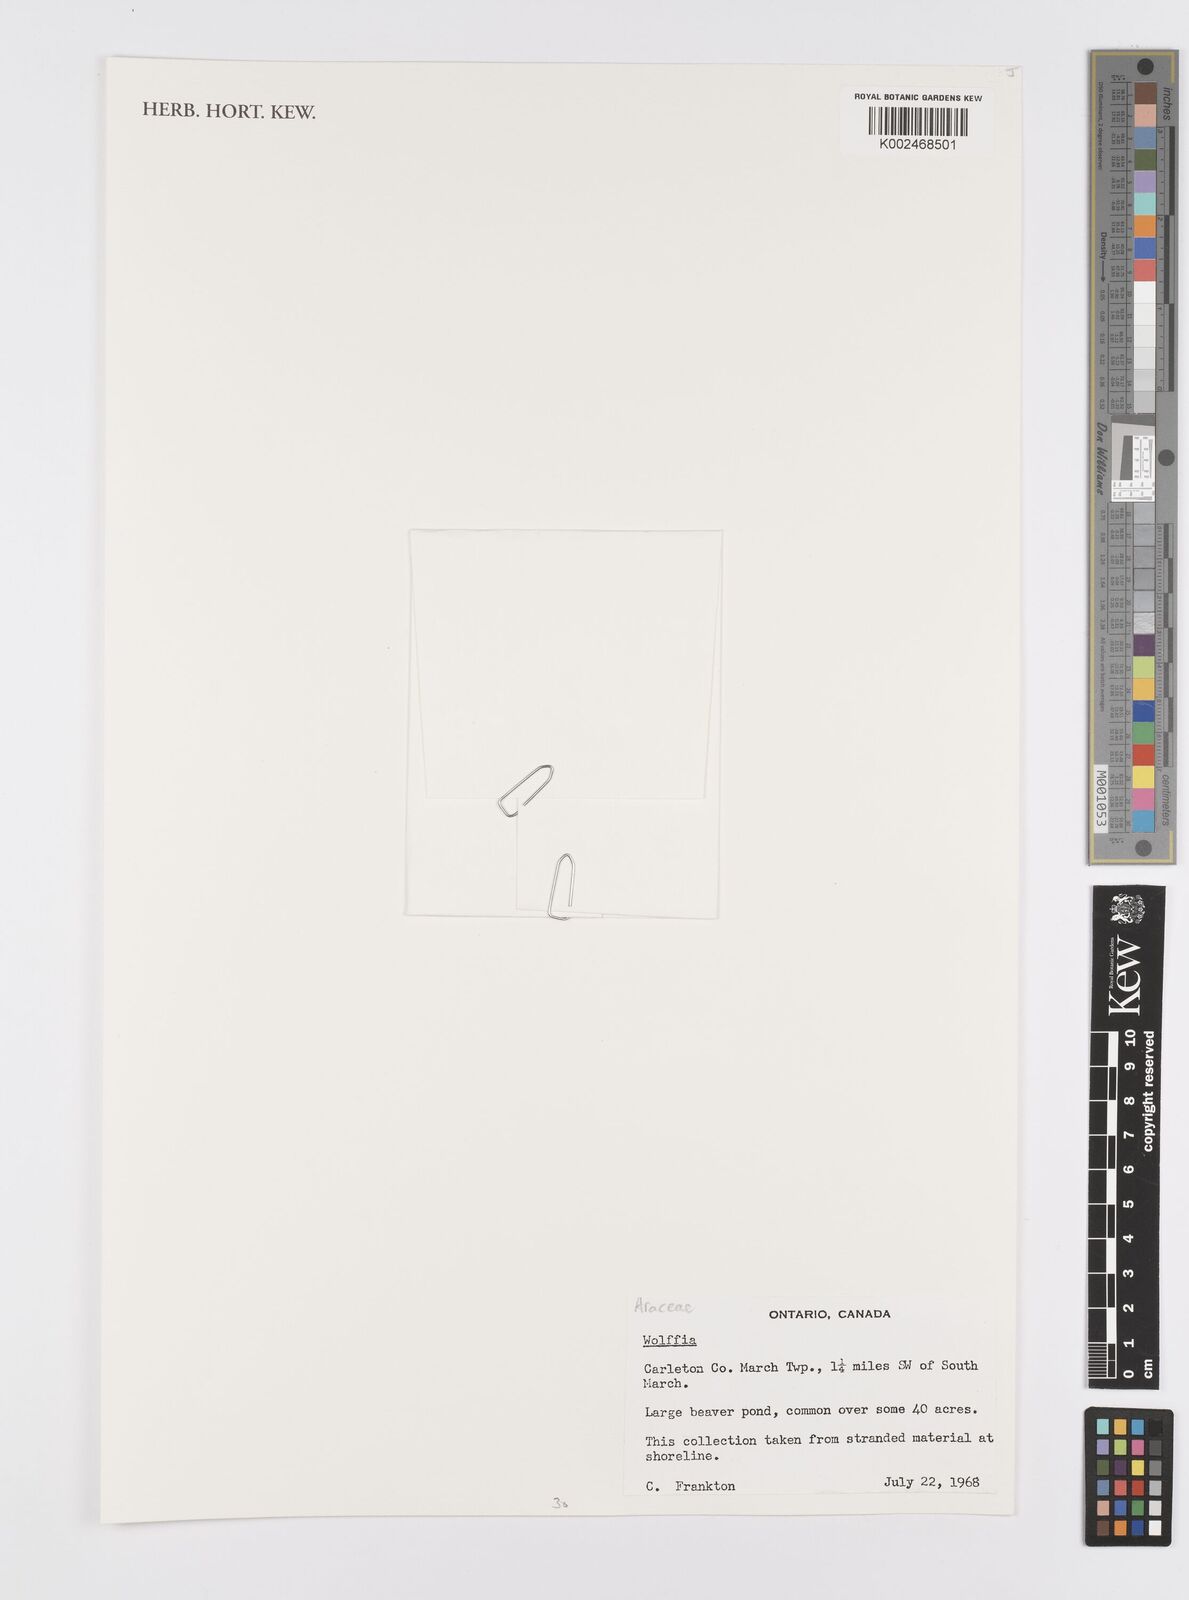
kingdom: Plantae
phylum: Tracheophyta
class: Liliopsida
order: Alismatales
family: Araceae
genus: Wolffia
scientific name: Wolffia
